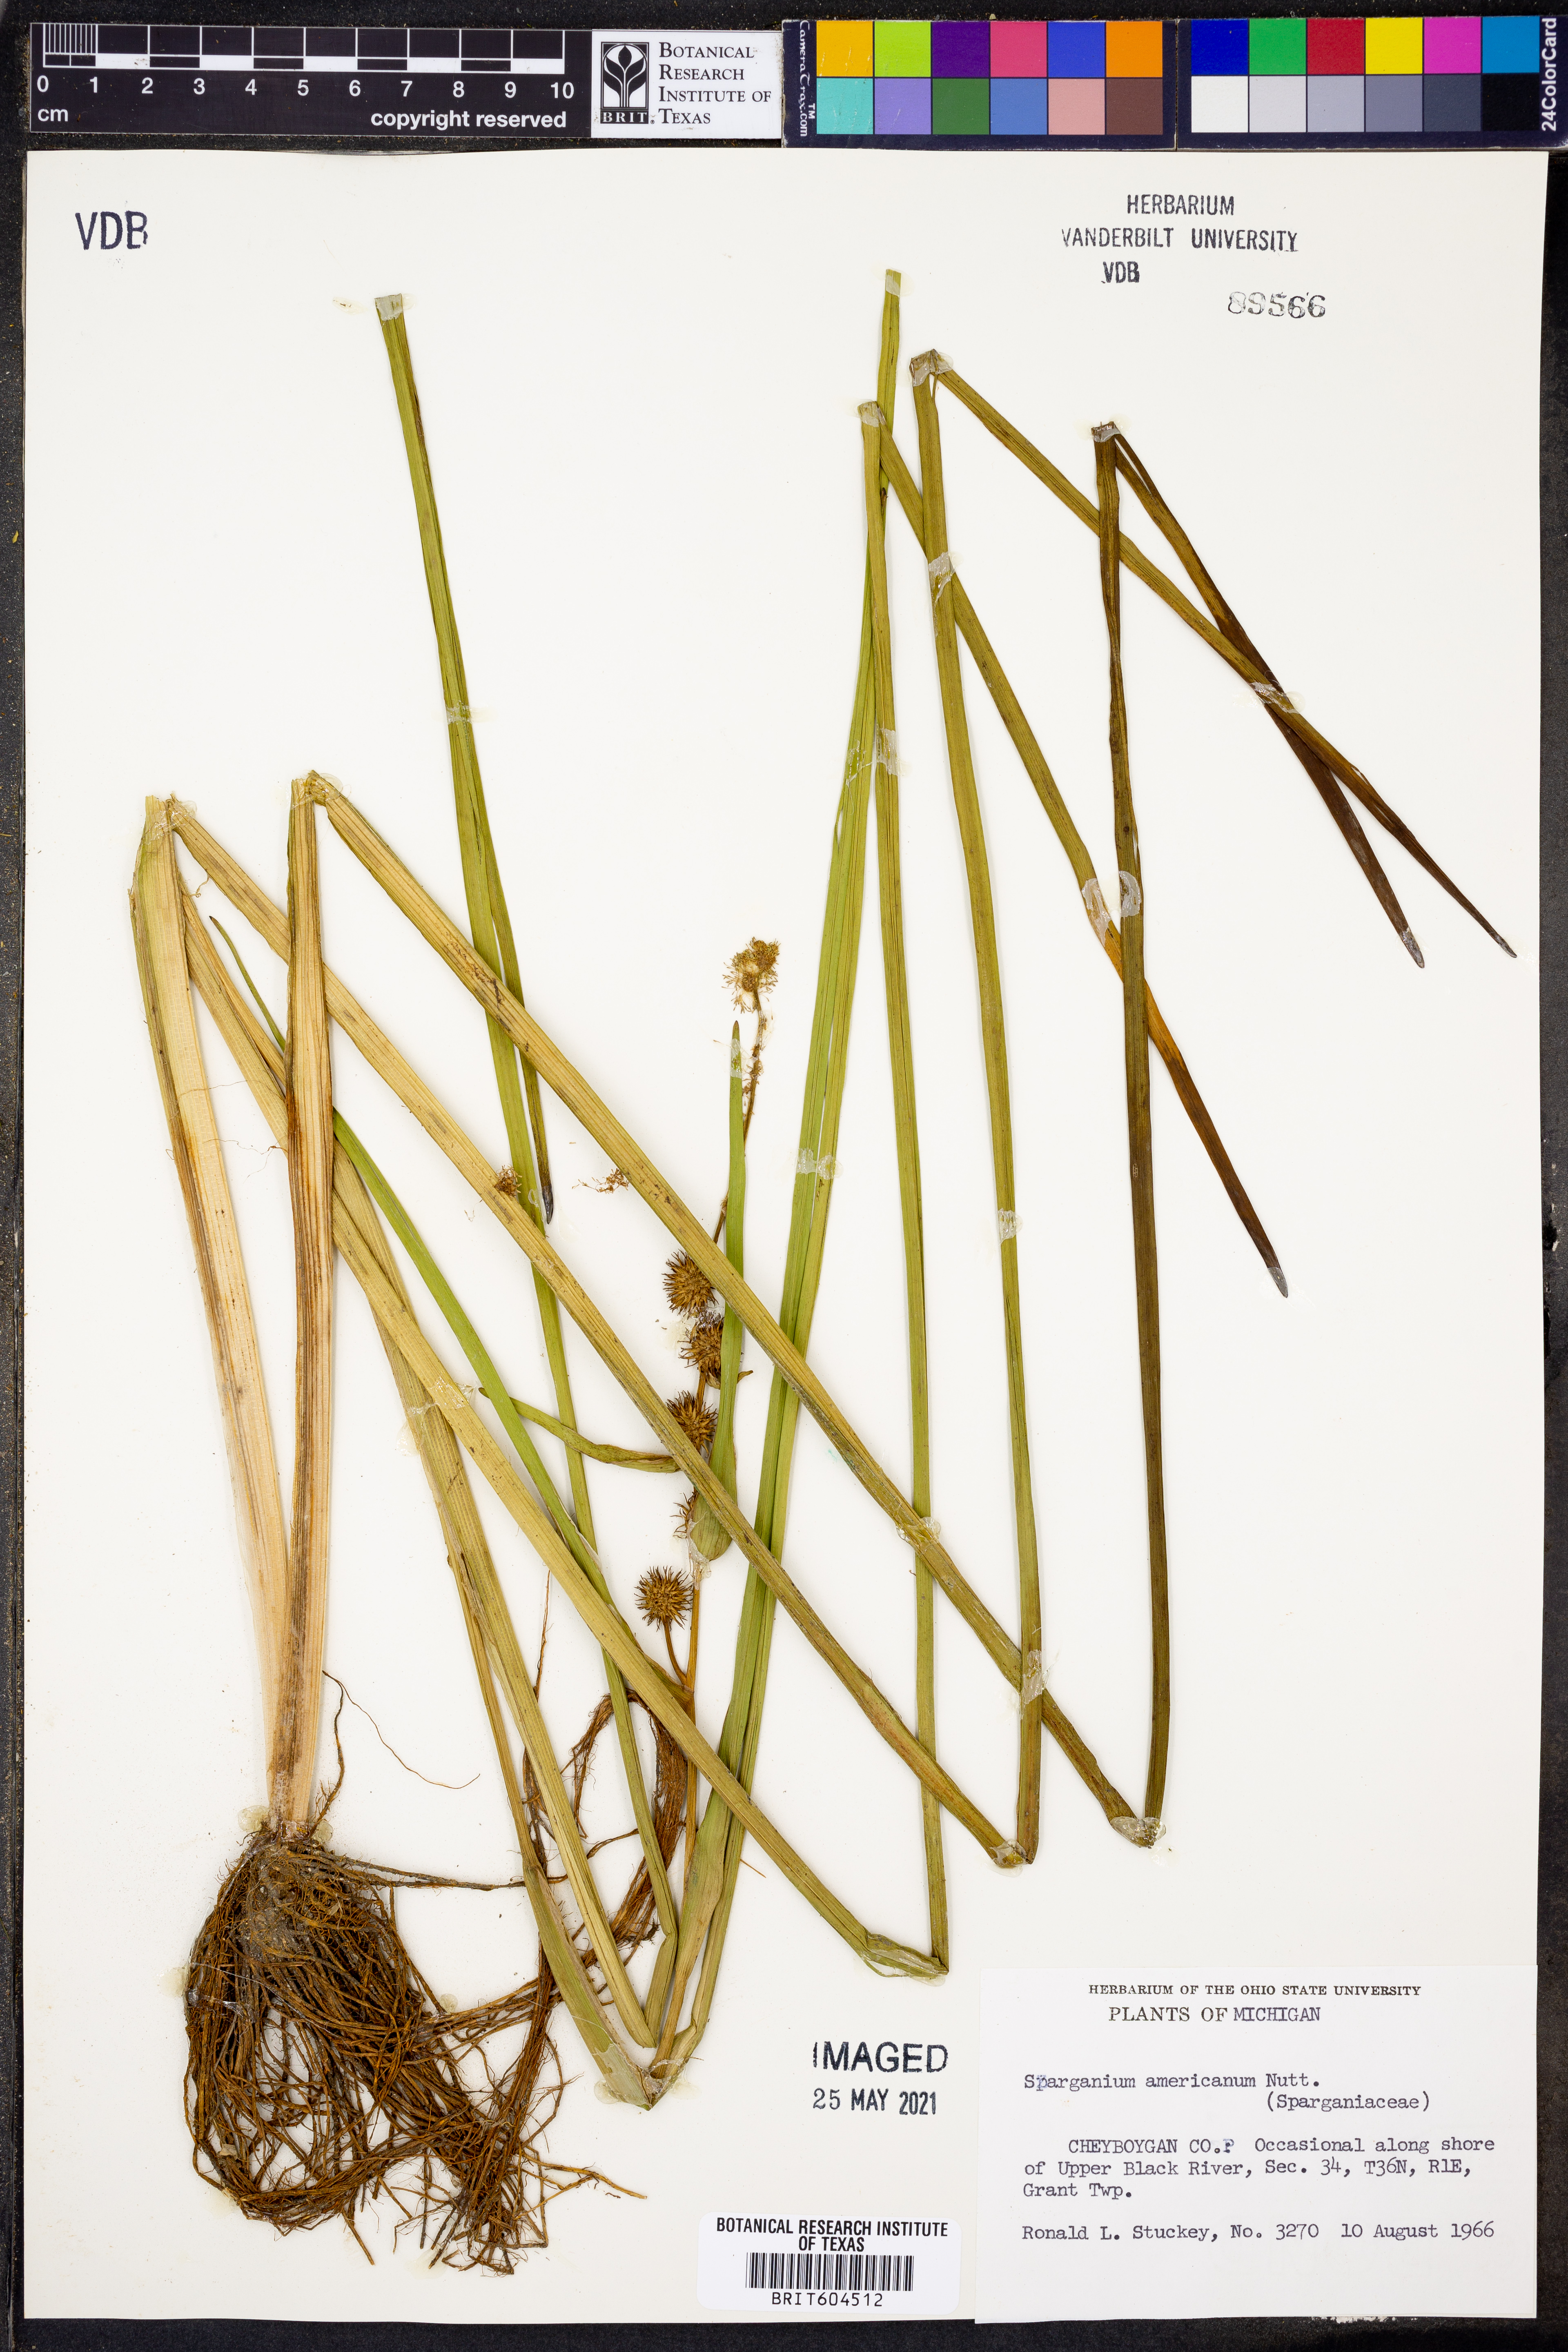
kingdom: Plantae
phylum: Tracheophyta
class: Liliopsida
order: Poales
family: Typhaceae
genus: Sparganium
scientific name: Sparganium americanum
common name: American burreed
